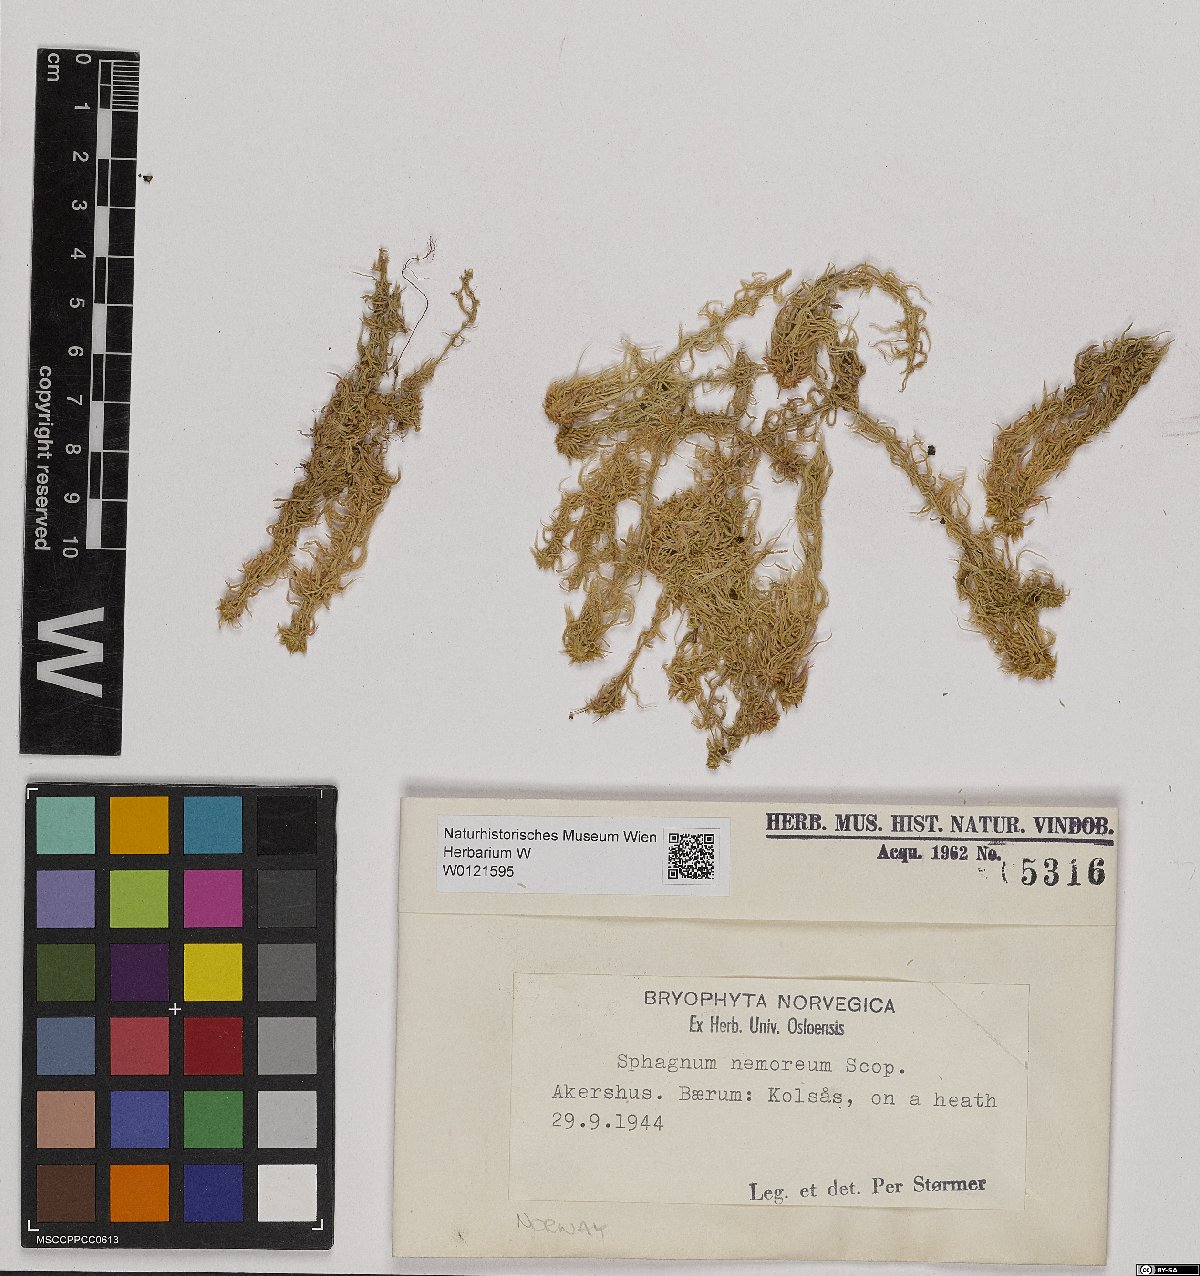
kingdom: Plantae
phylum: Bryophyta
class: Sphagnopsida
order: Sphagnales
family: Sphagnaceae
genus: Sphagnum
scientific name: Sphagnum capillifolium
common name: Small red peat moss
